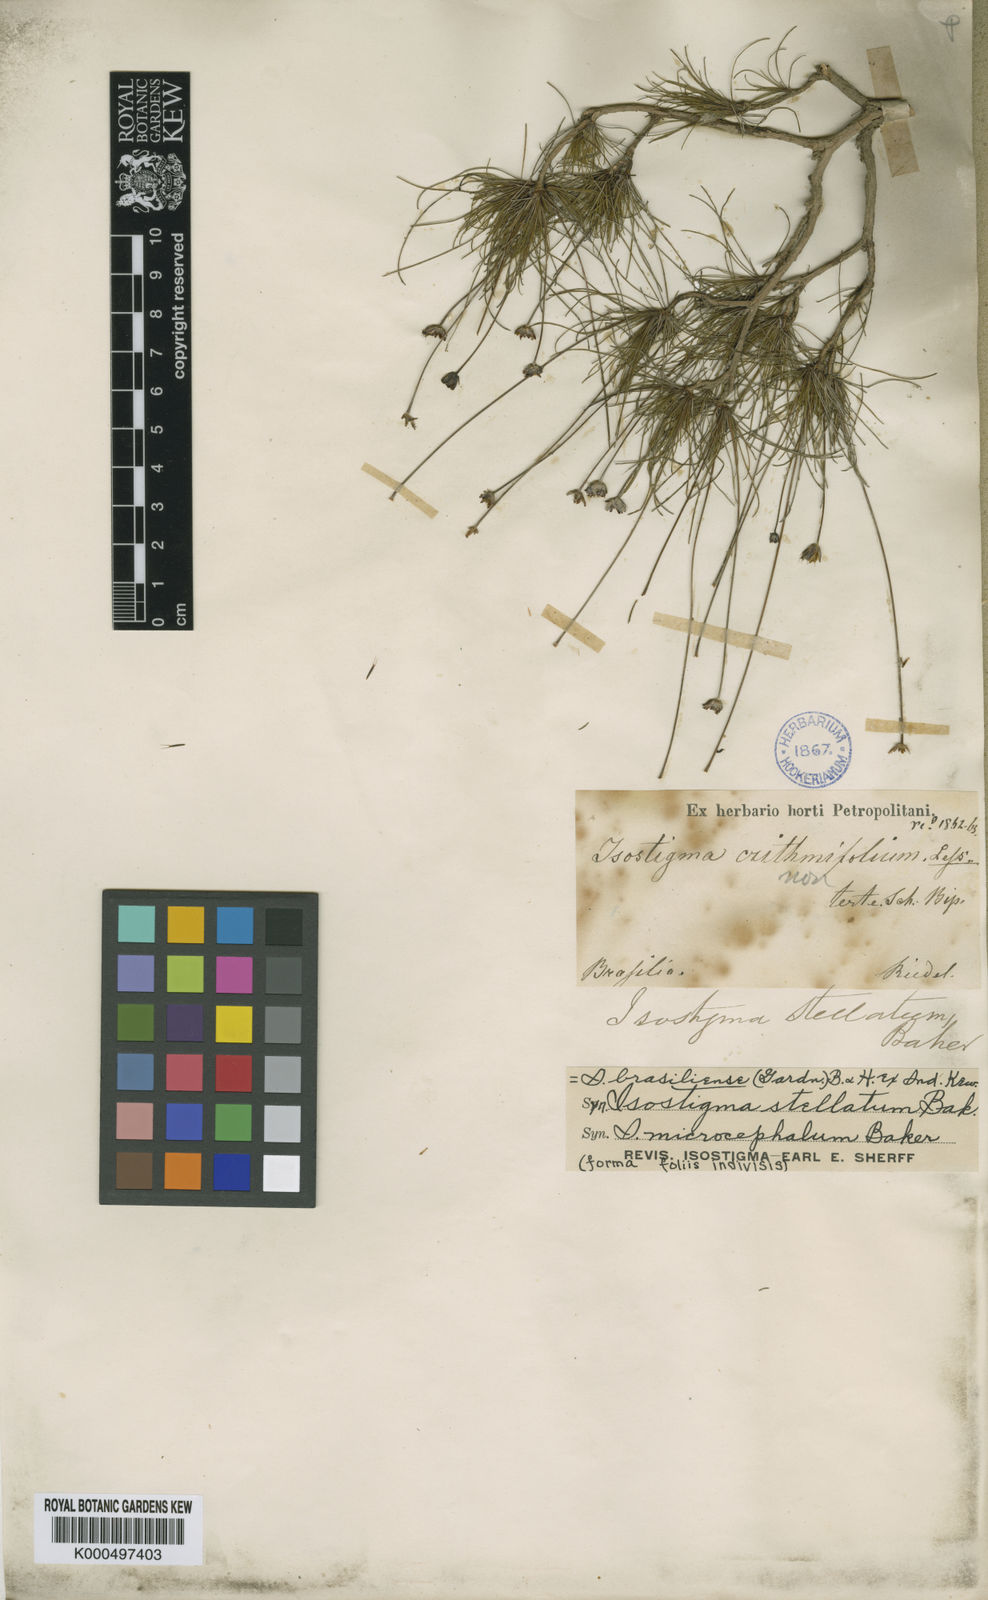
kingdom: Plantae
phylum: Tracheophyta
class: Magnoliopsida
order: Asterales
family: Asteraceae
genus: Isostigma
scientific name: Isostigma
